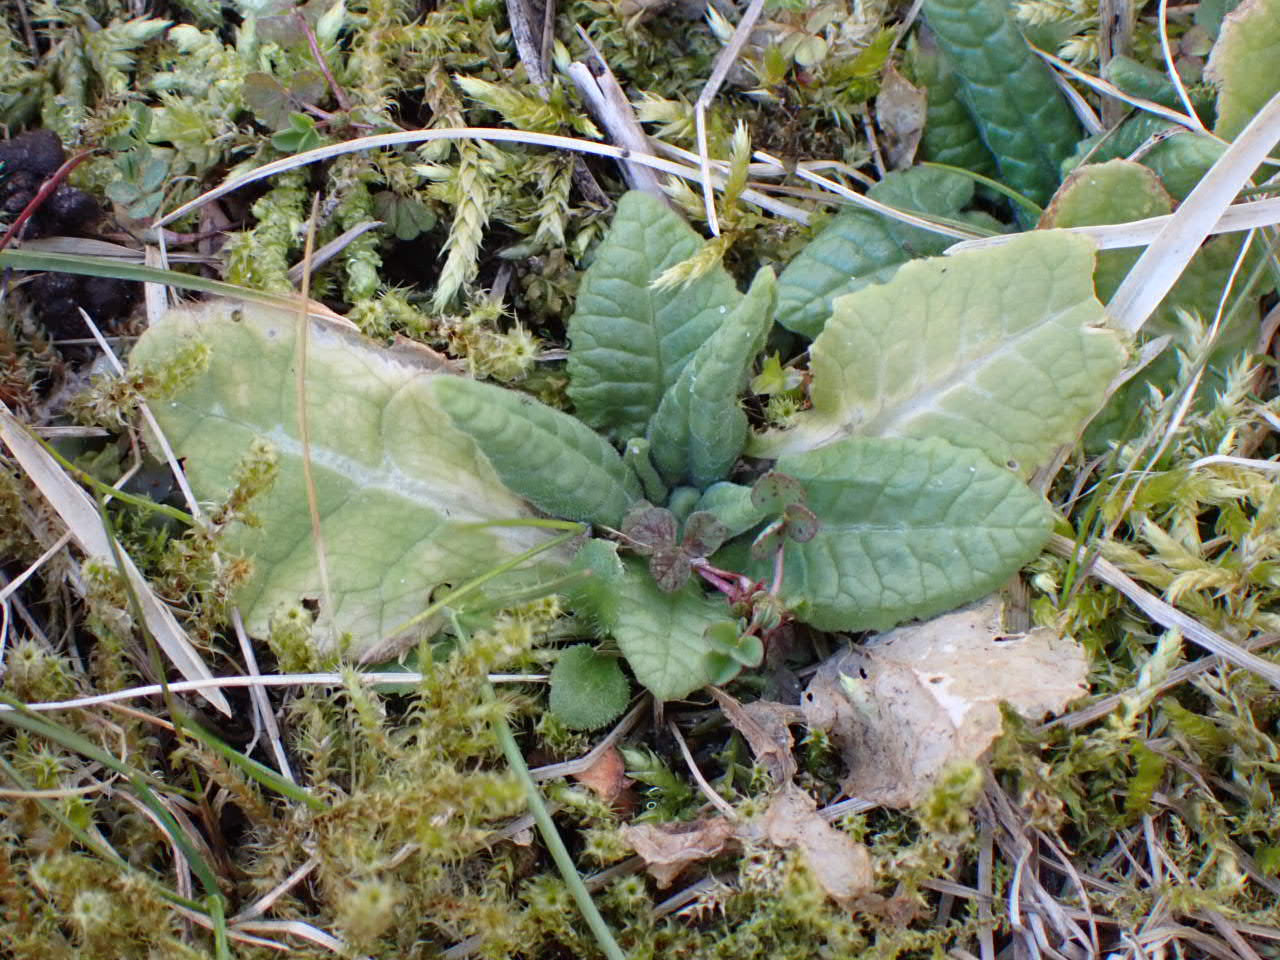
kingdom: Plantae
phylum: Tracheophyta
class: Magnoliopsida
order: Ericales
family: Primulaceae
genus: Primula
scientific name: Primula veris
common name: Hulkravet kodriver
